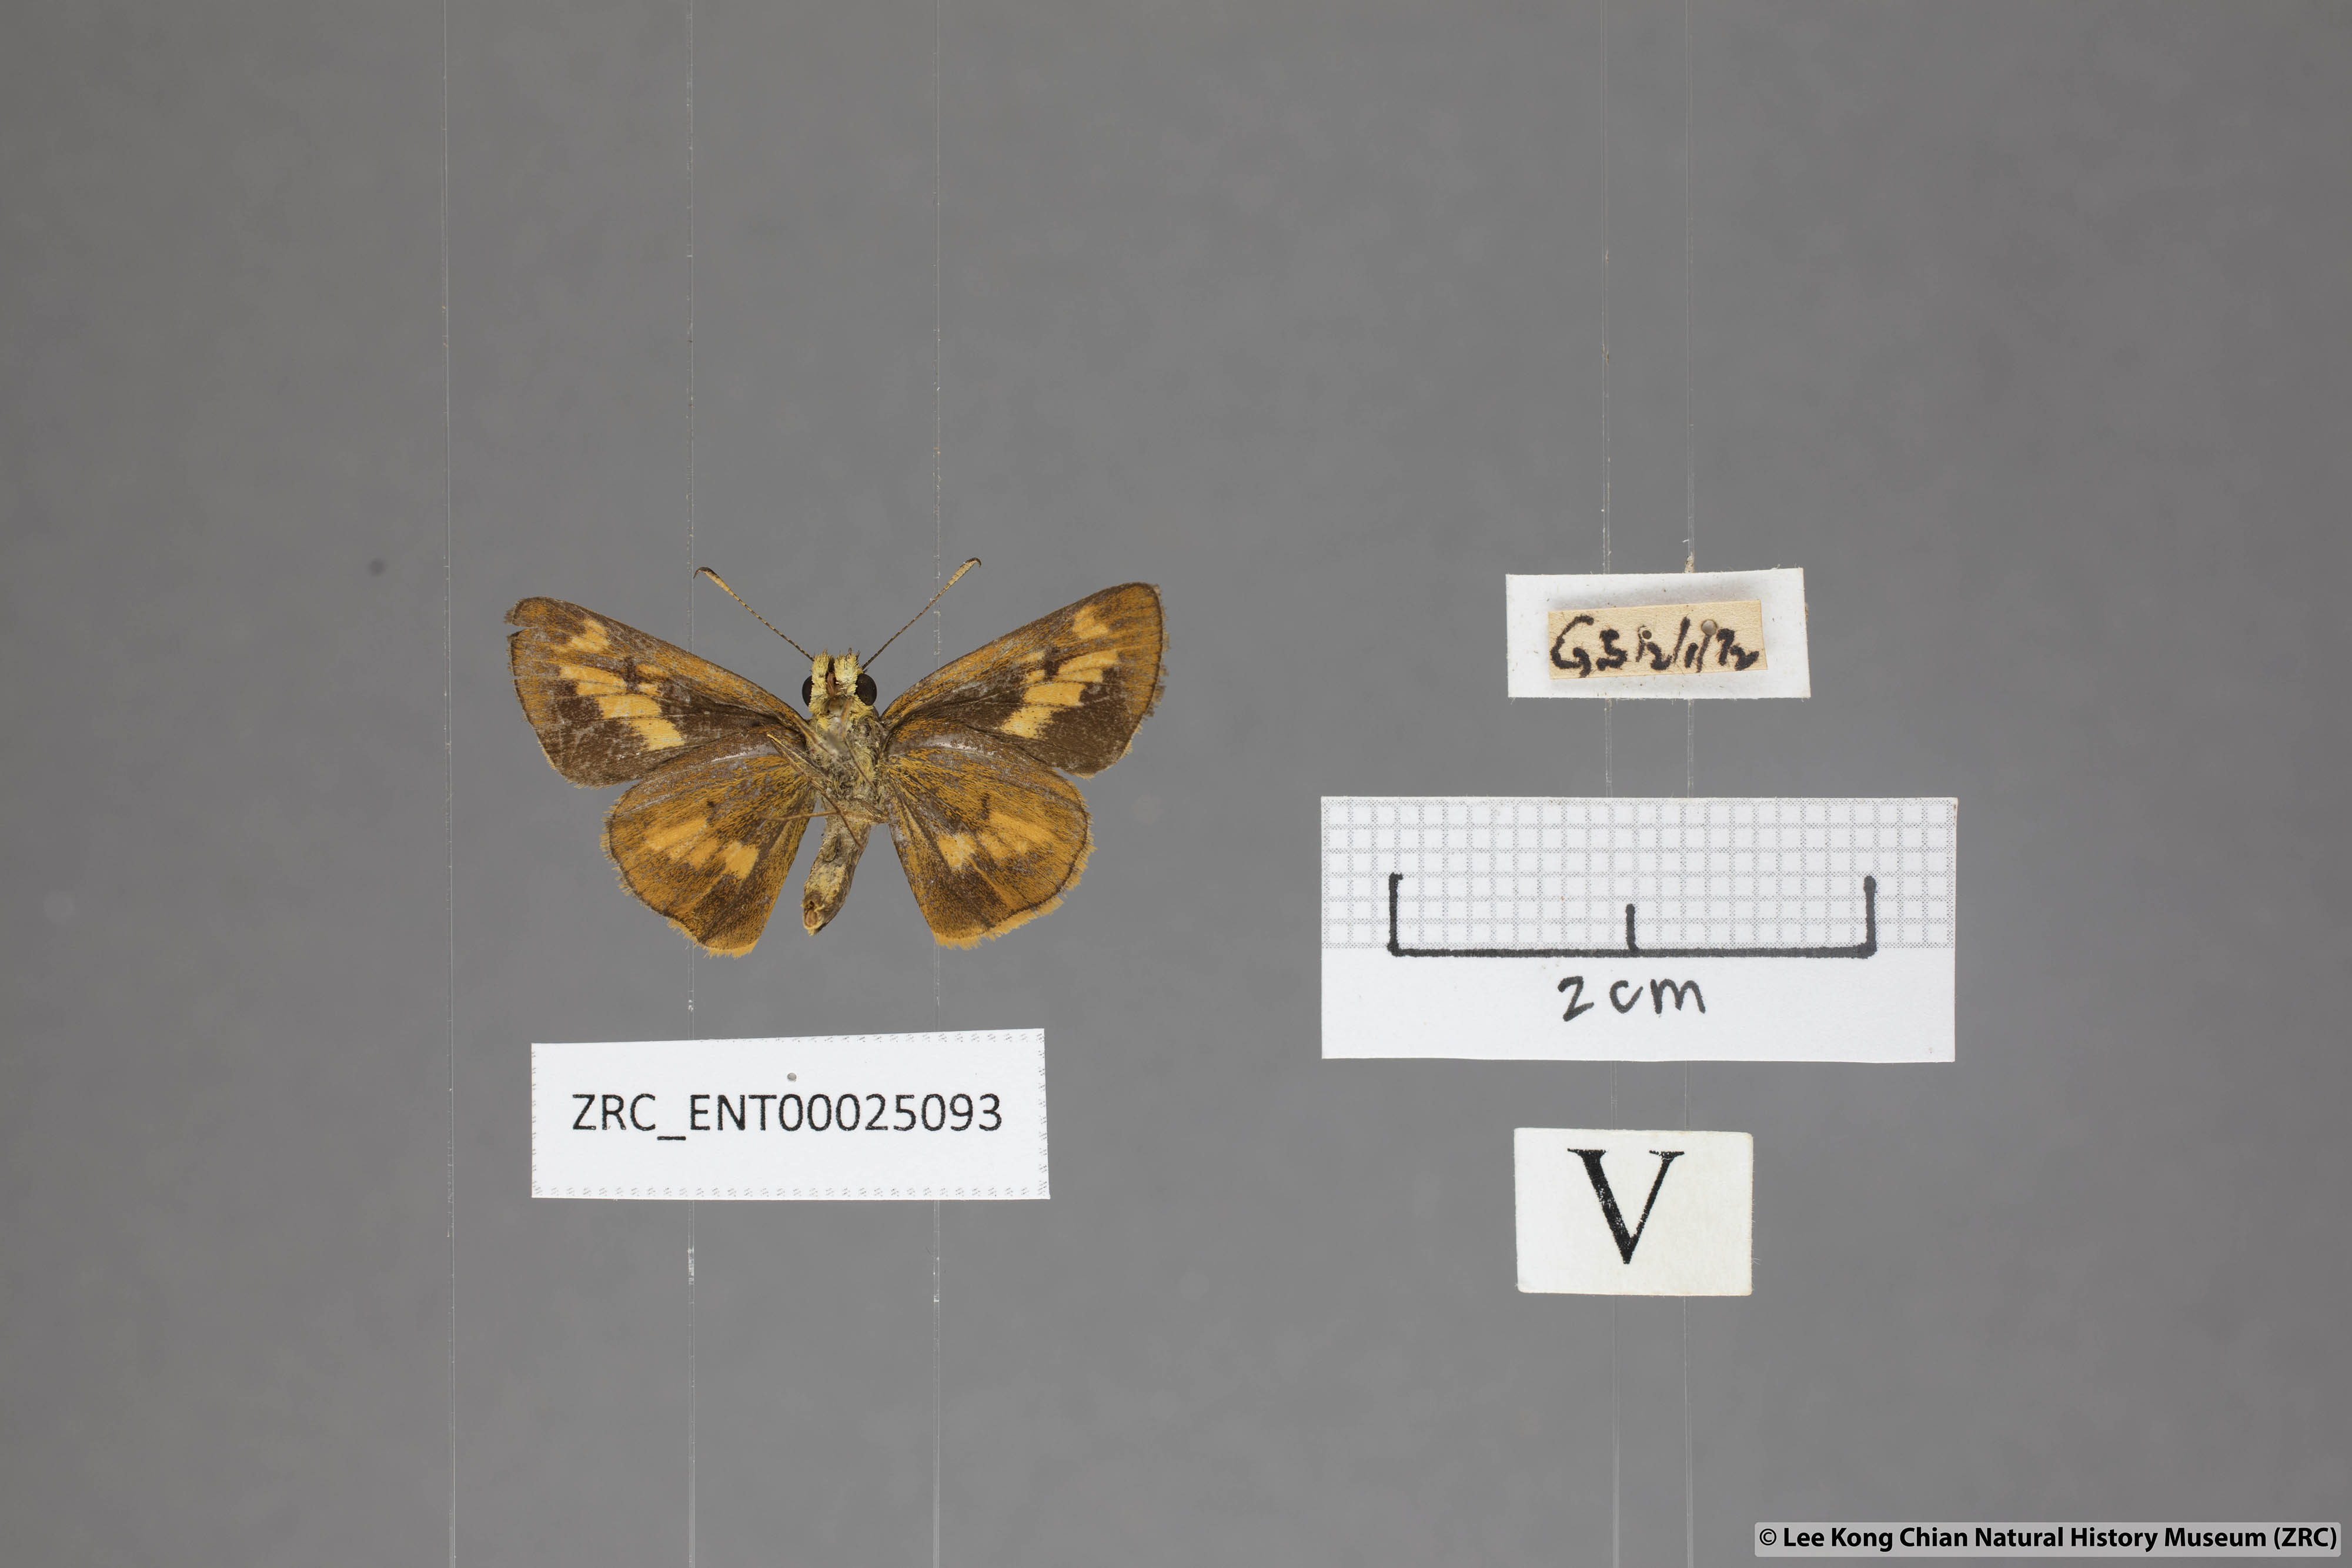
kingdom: Animalia
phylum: Arthropoda
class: Insecta
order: Lepidoptera
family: Hesperiidae
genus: Oriens
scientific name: Oriens goloides
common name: Smaller dartlet
